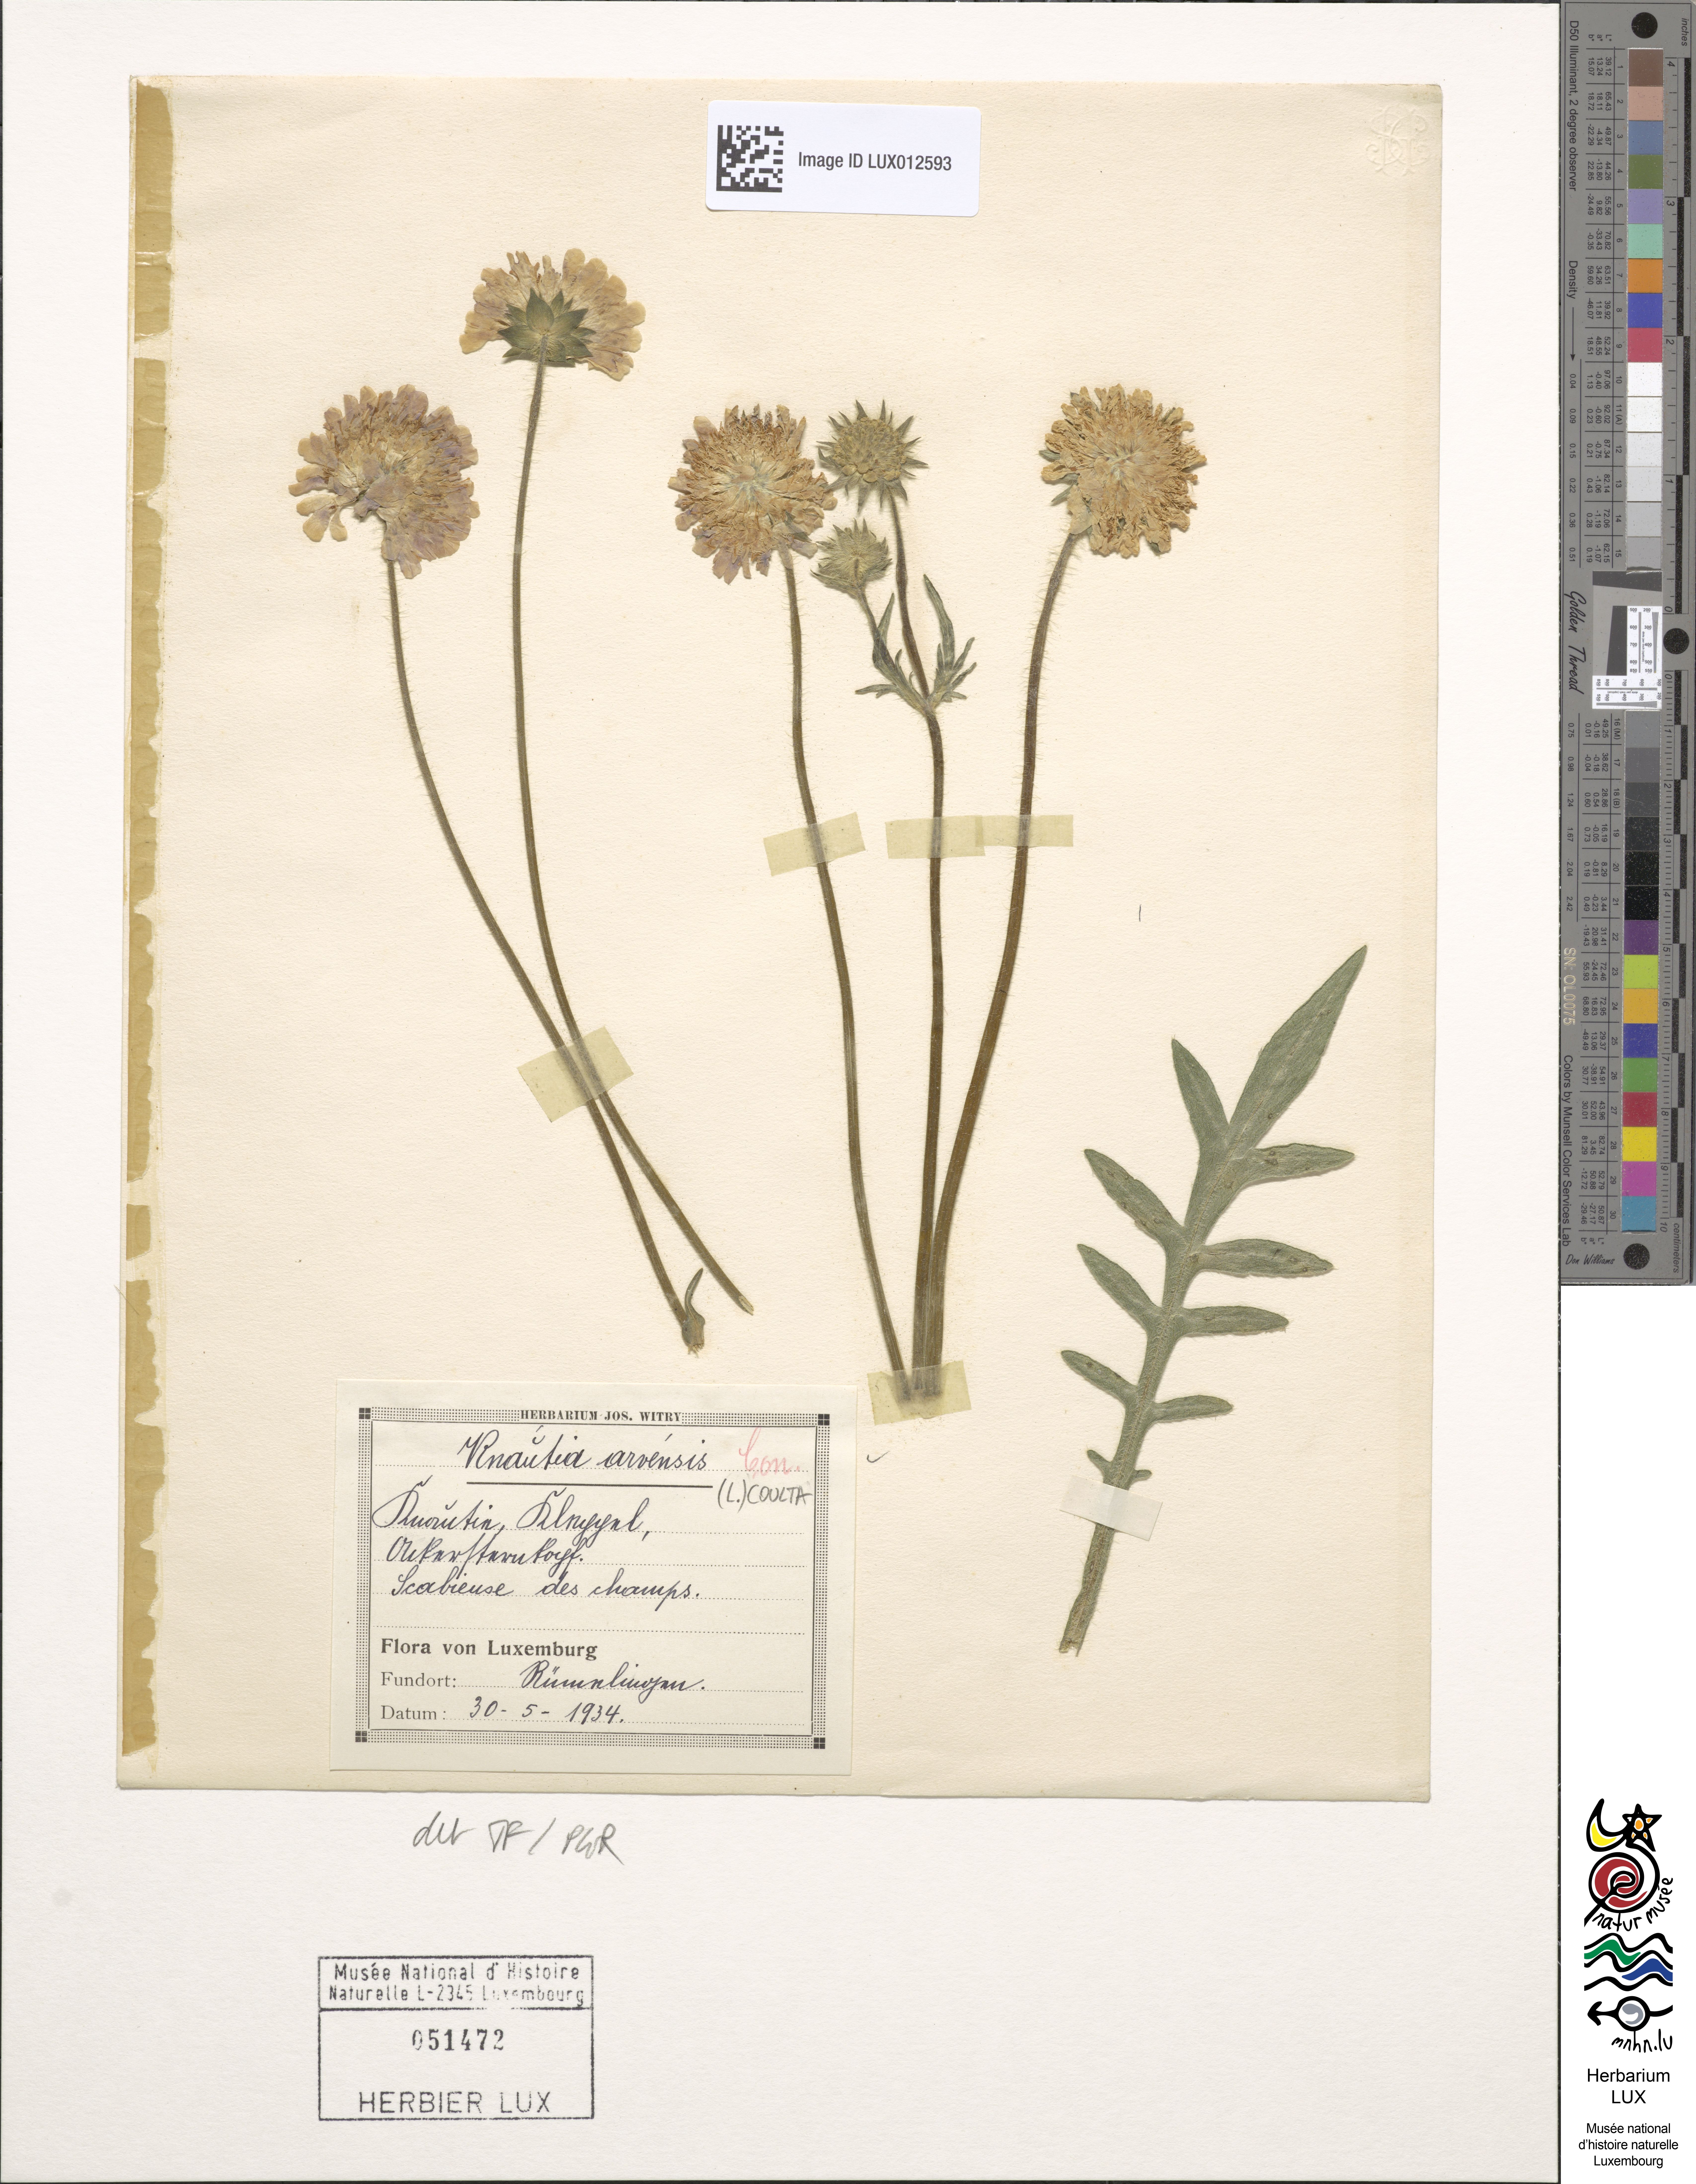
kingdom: Plantae
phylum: Tracheophyta
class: Magnoliopsida
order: Dipsacales
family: Caprifoliaceae
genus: Knautia
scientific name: Knautia arvensis
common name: Field scabiosa
